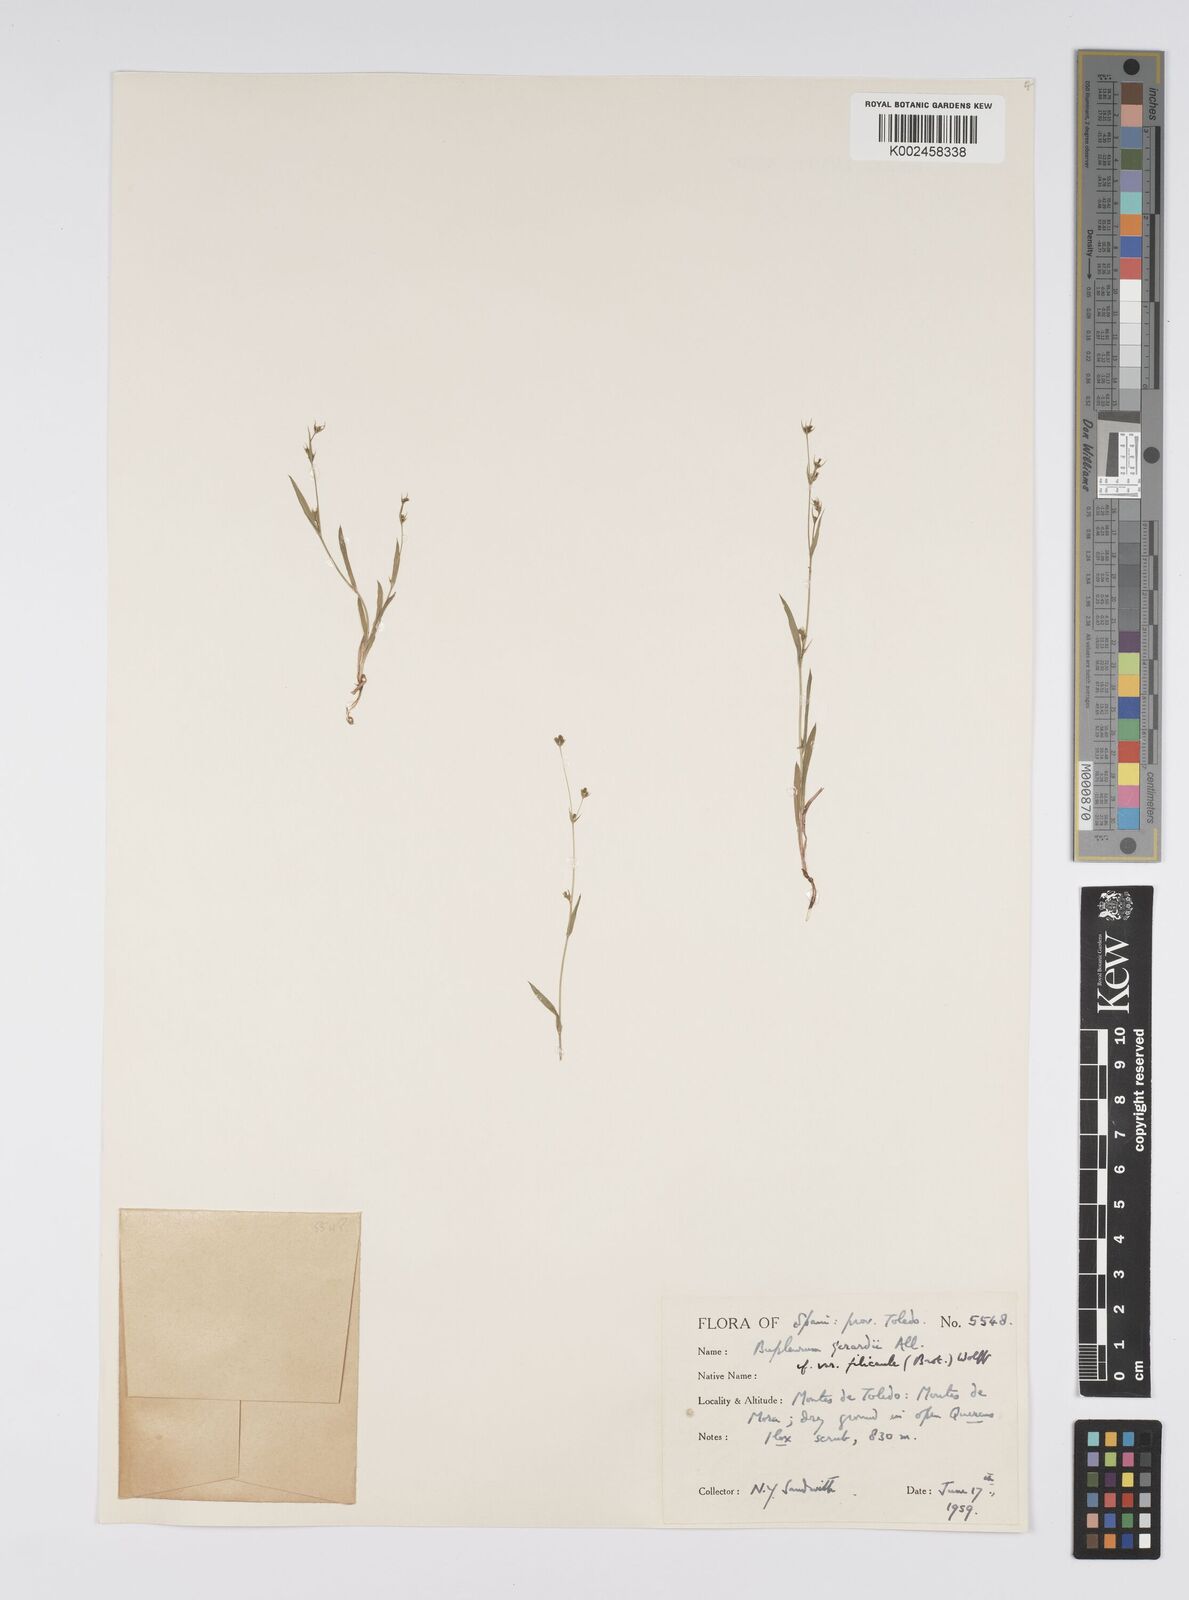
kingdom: Plantae
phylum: Tracheophyta
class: Magnoliopsida
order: Apiales
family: Apiaceae
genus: Bupleurum
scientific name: Bupleurum gerardi
